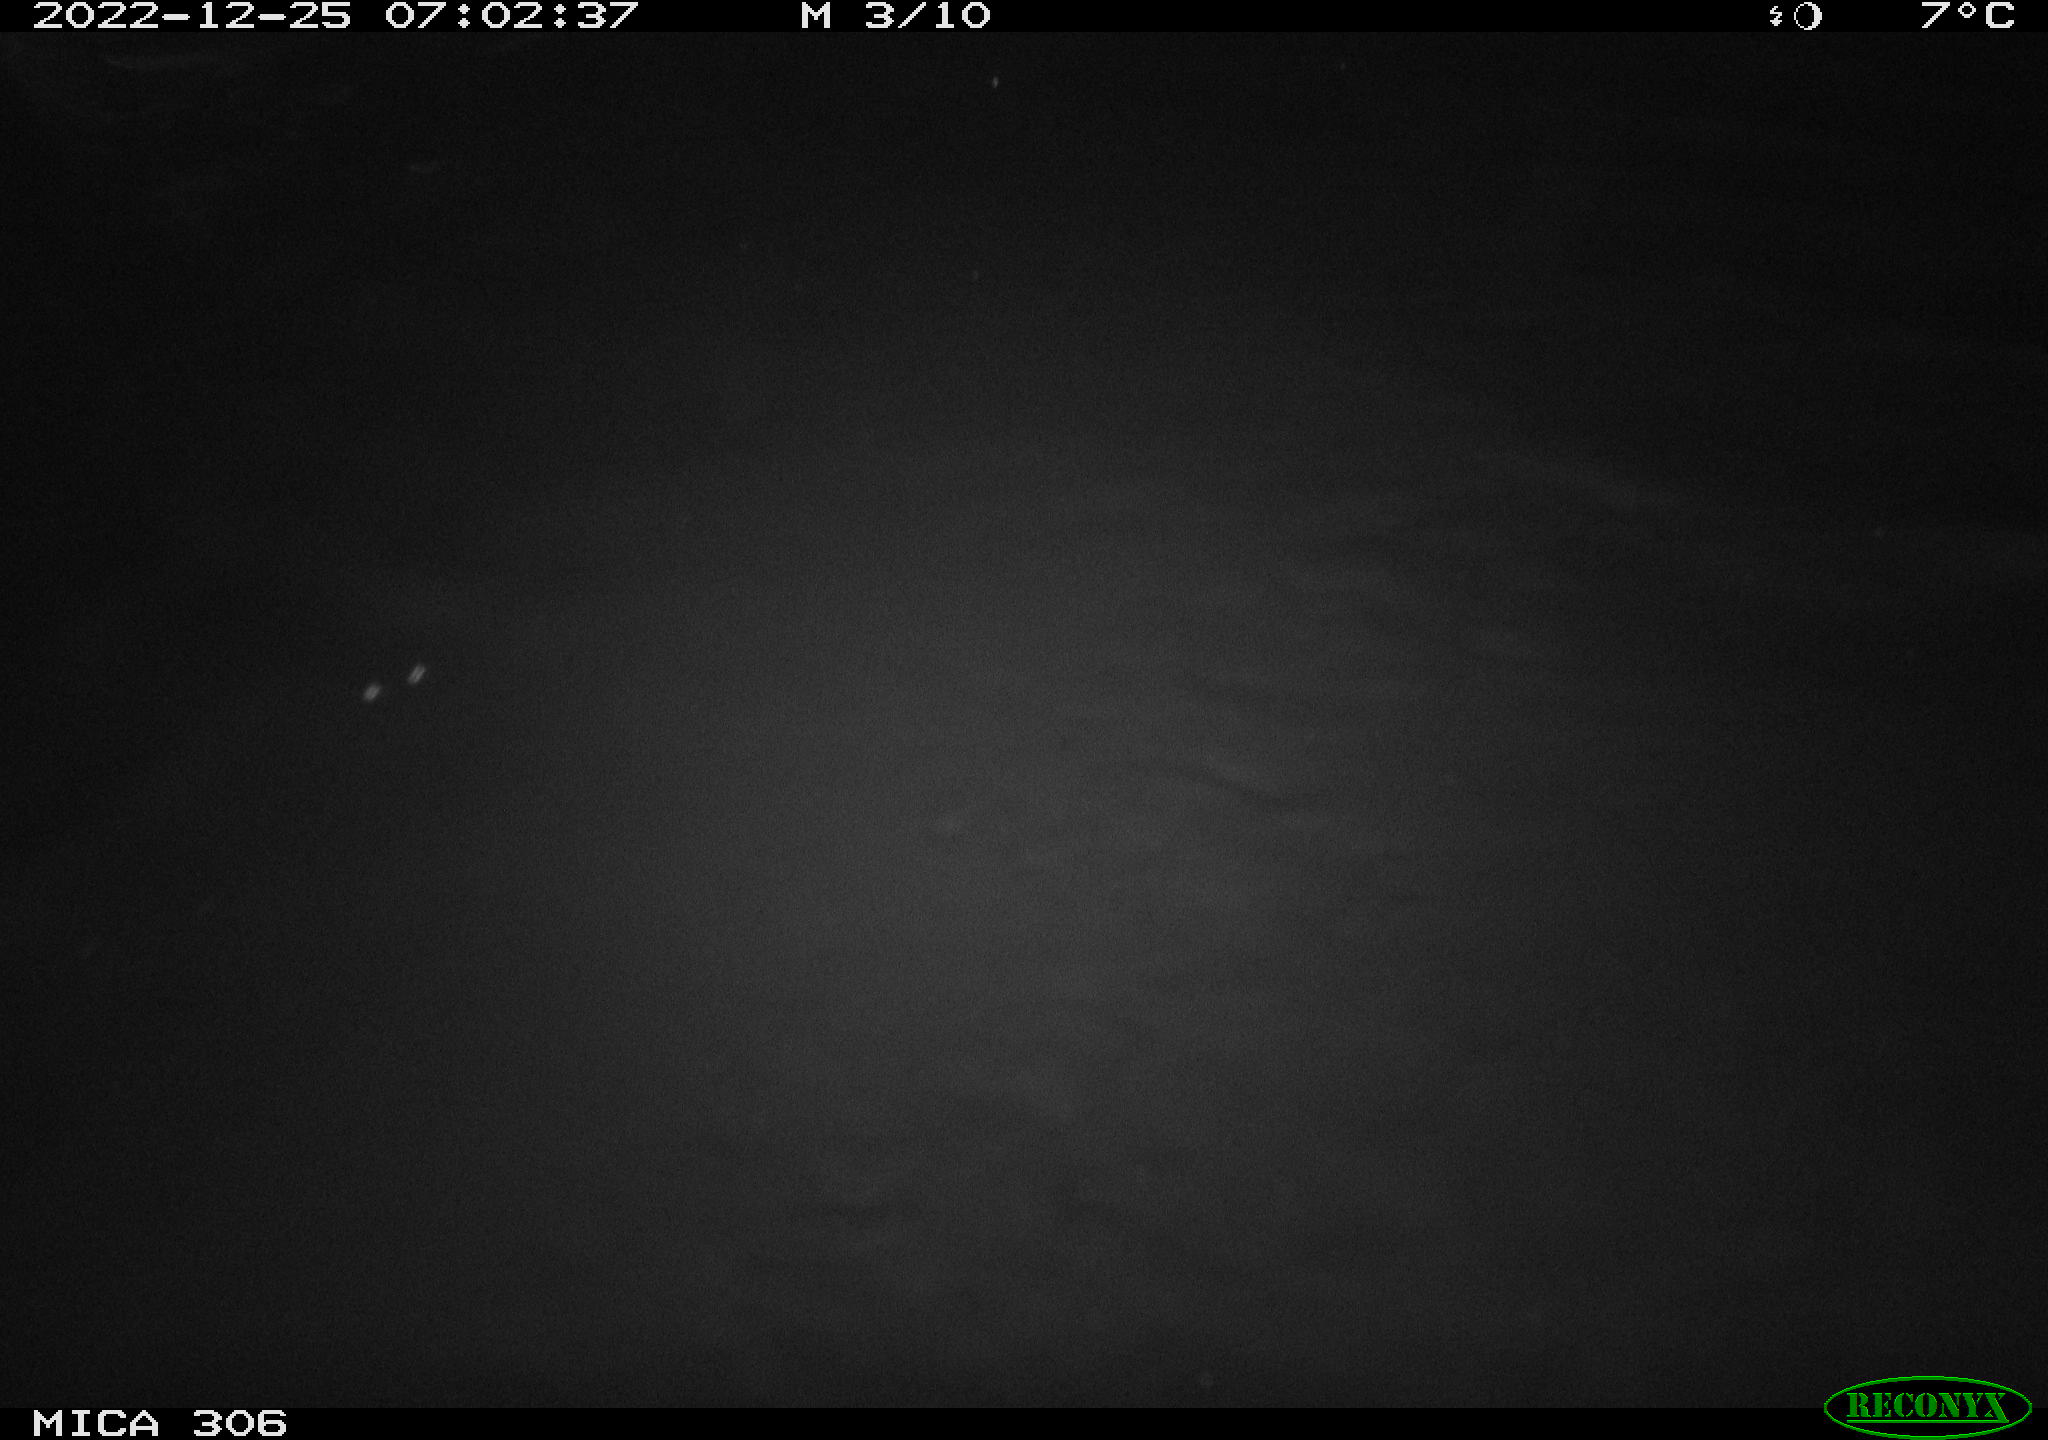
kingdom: Animalia
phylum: Chordata
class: Mammalia
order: Rodentia
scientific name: Rodentia
